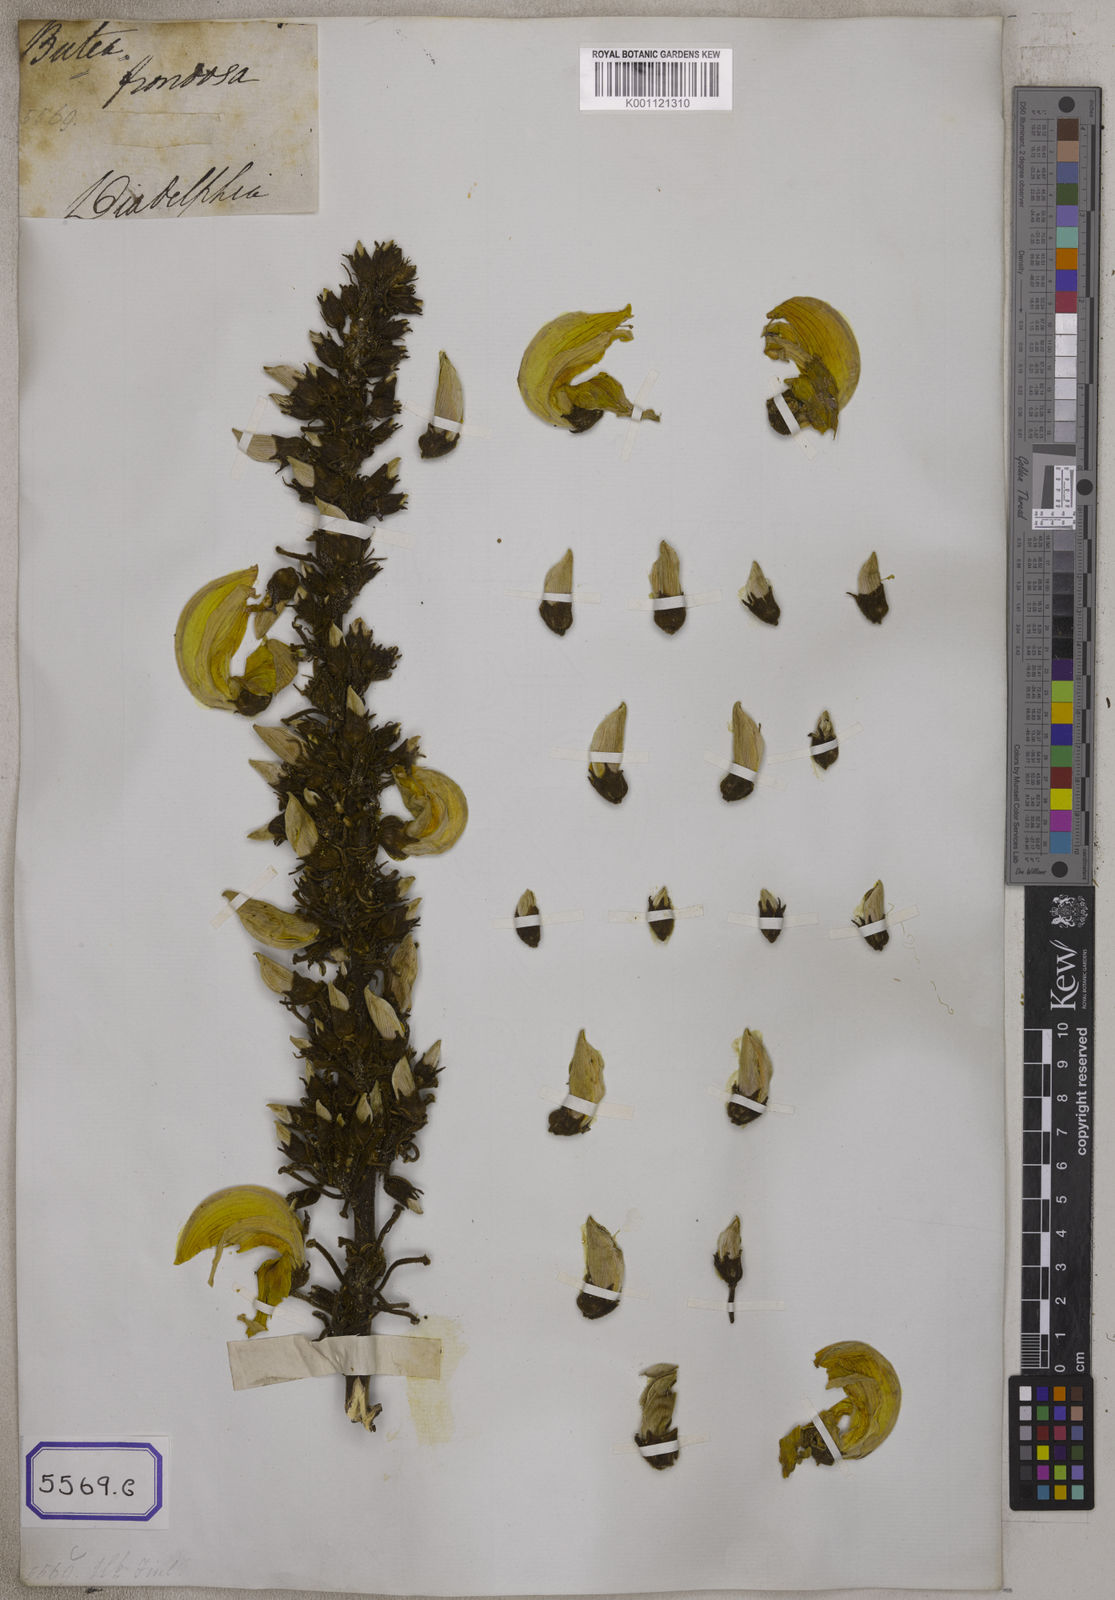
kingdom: Plantae
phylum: Tracheophyta
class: Magnoliopsida
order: Fabales
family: Fabaceae
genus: Butea
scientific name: Butea
